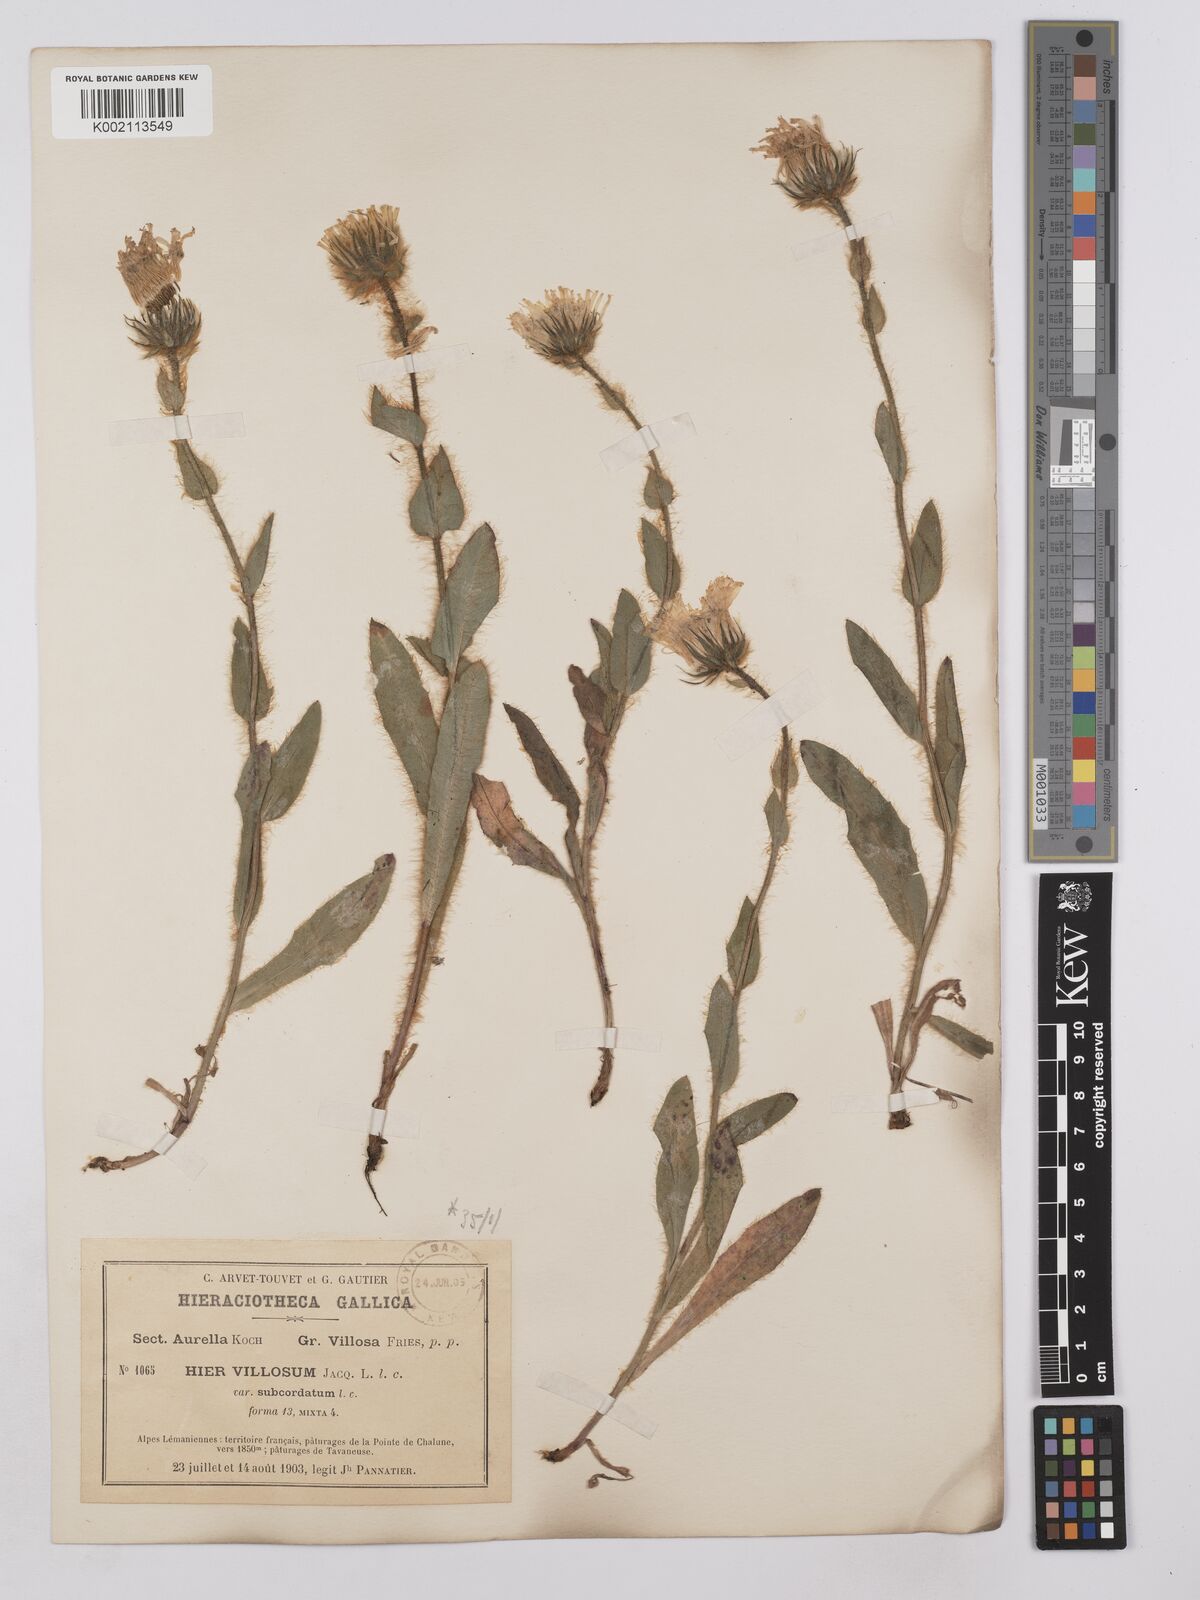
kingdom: Plantae
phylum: Tracheophyta
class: Magnoliopsida
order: Asterales
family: Asteraceae
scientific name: Asteraceae
